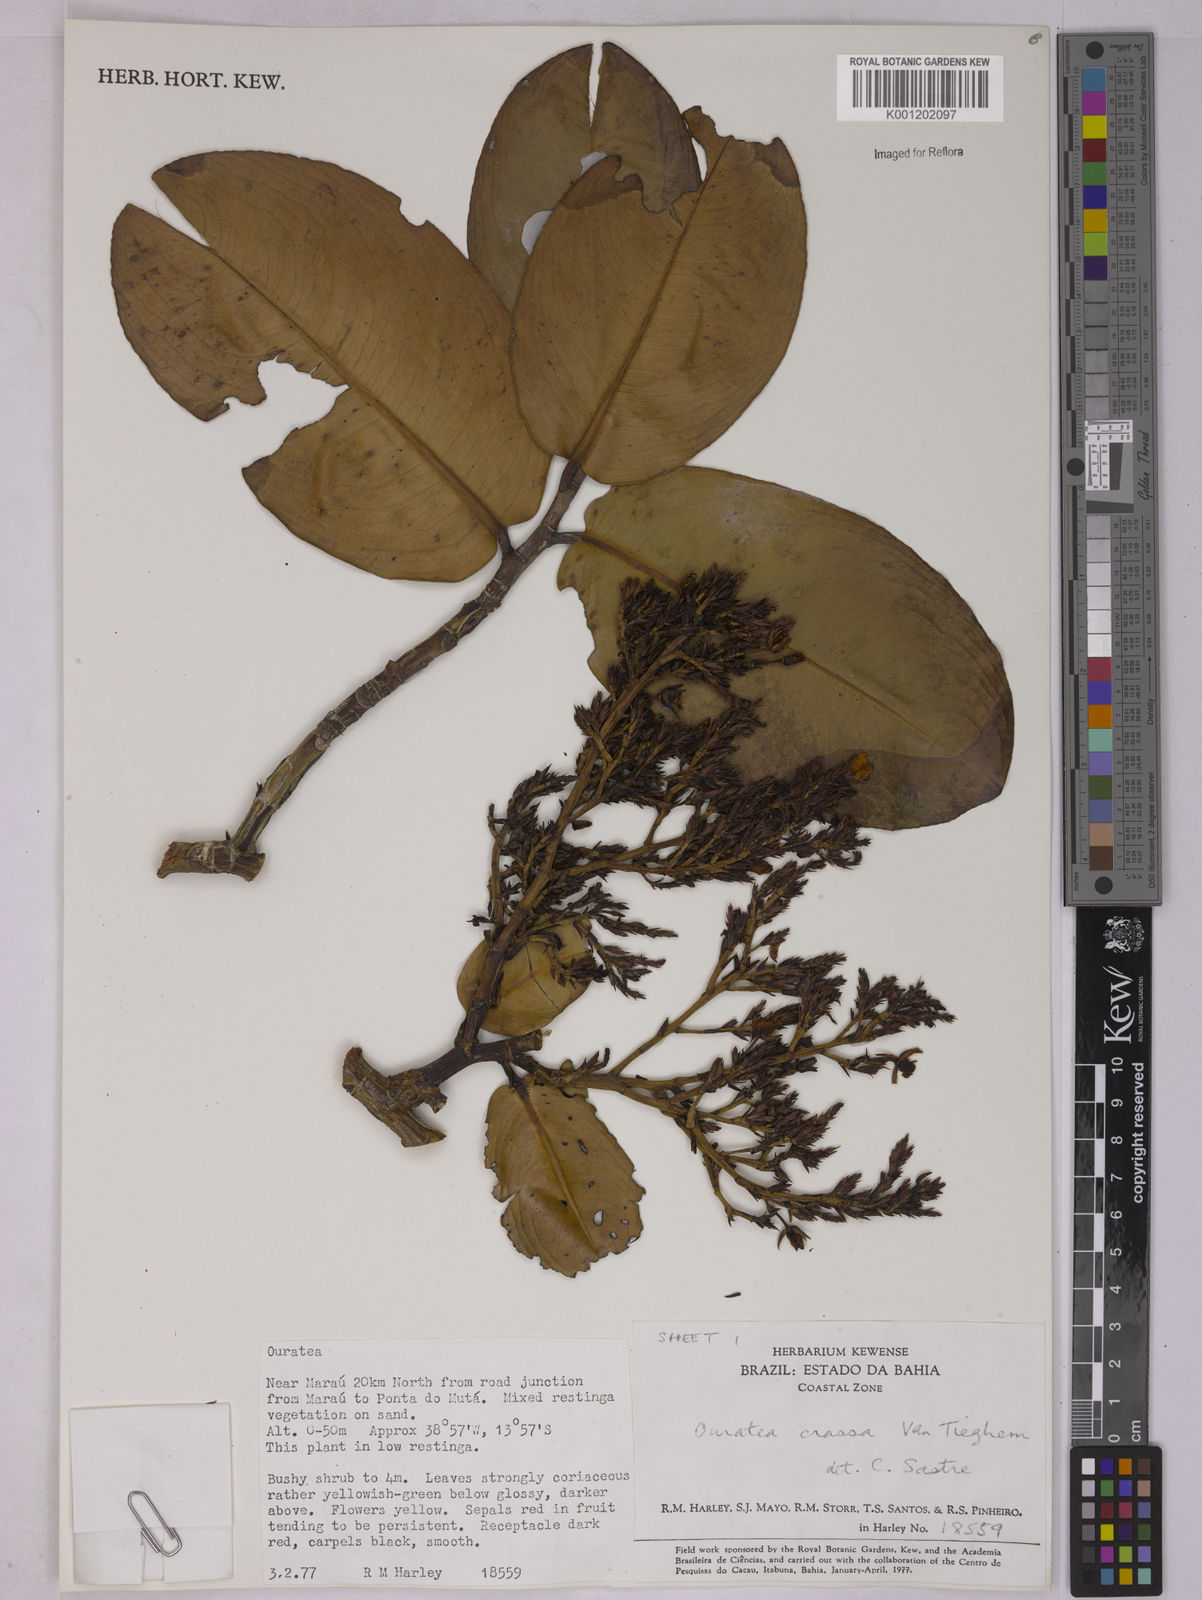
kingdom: Plantae
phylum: Tracheophyta
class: Magnoliopsida
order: Malpighiales
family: Ochnaceae
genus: Ouratea
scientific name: Ouratea crassa
